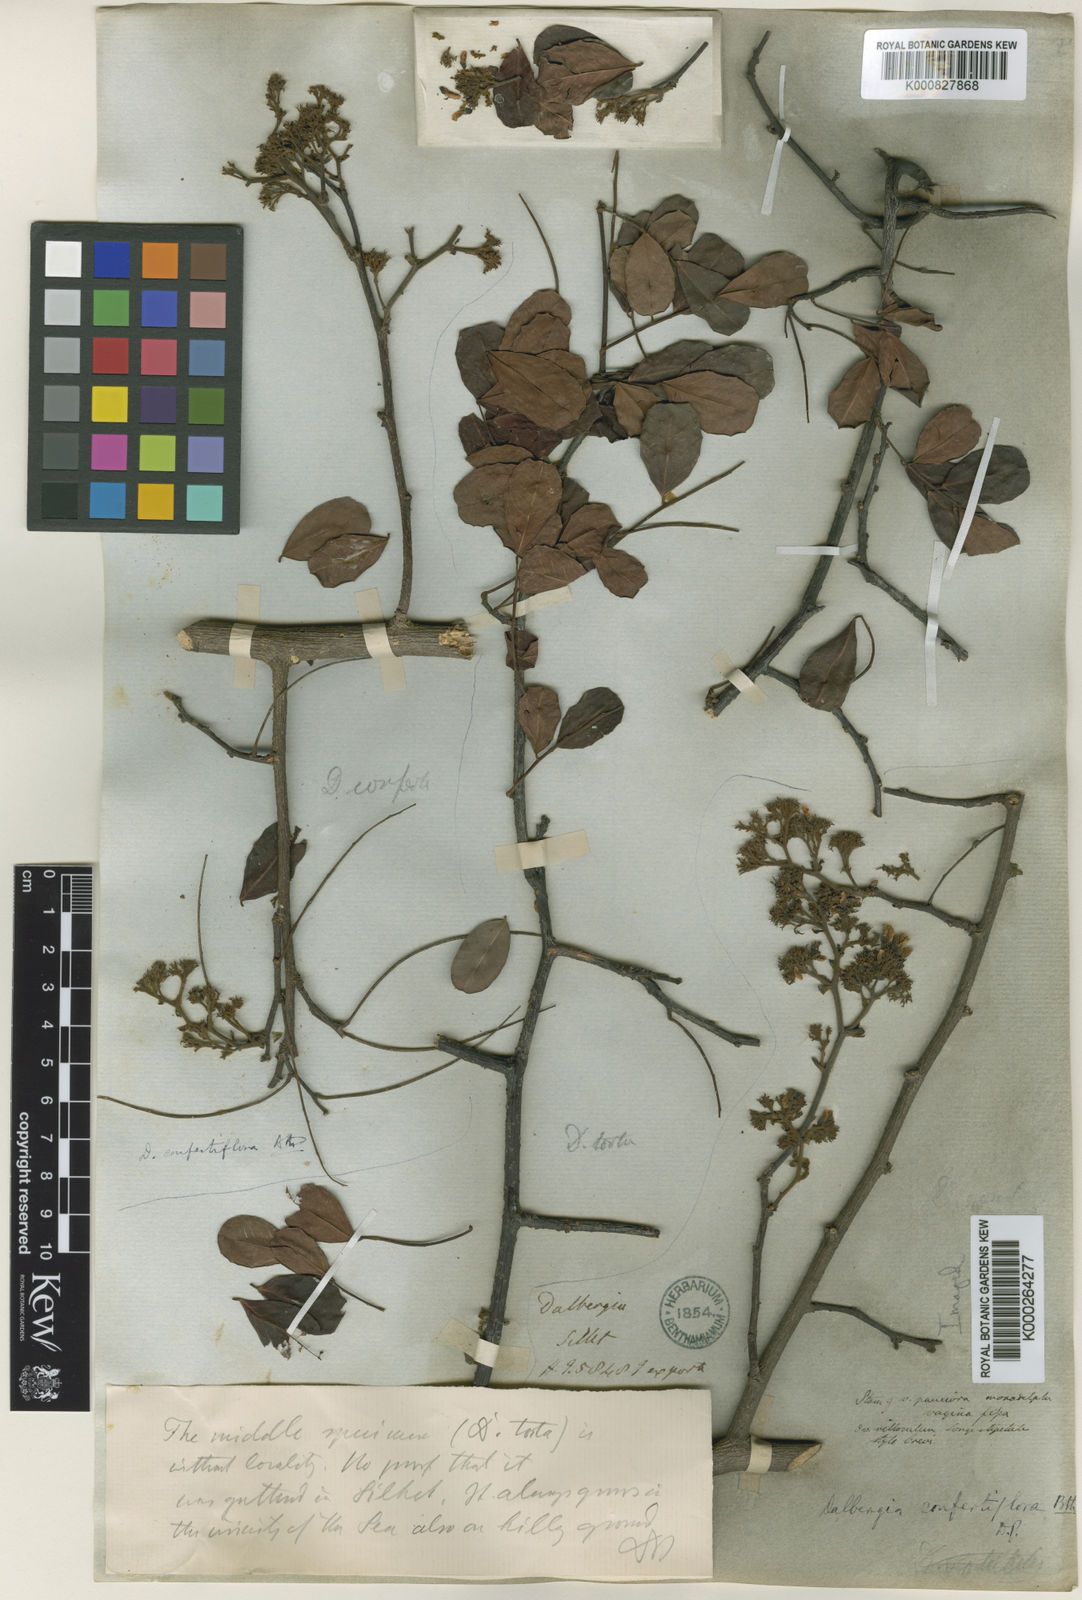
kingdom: Plantae
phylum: Tracheophyta
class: Magnoliopsida
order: Fabales
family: Fabaceae
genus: Dalbergia
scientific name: Dalbergia confertiflora
